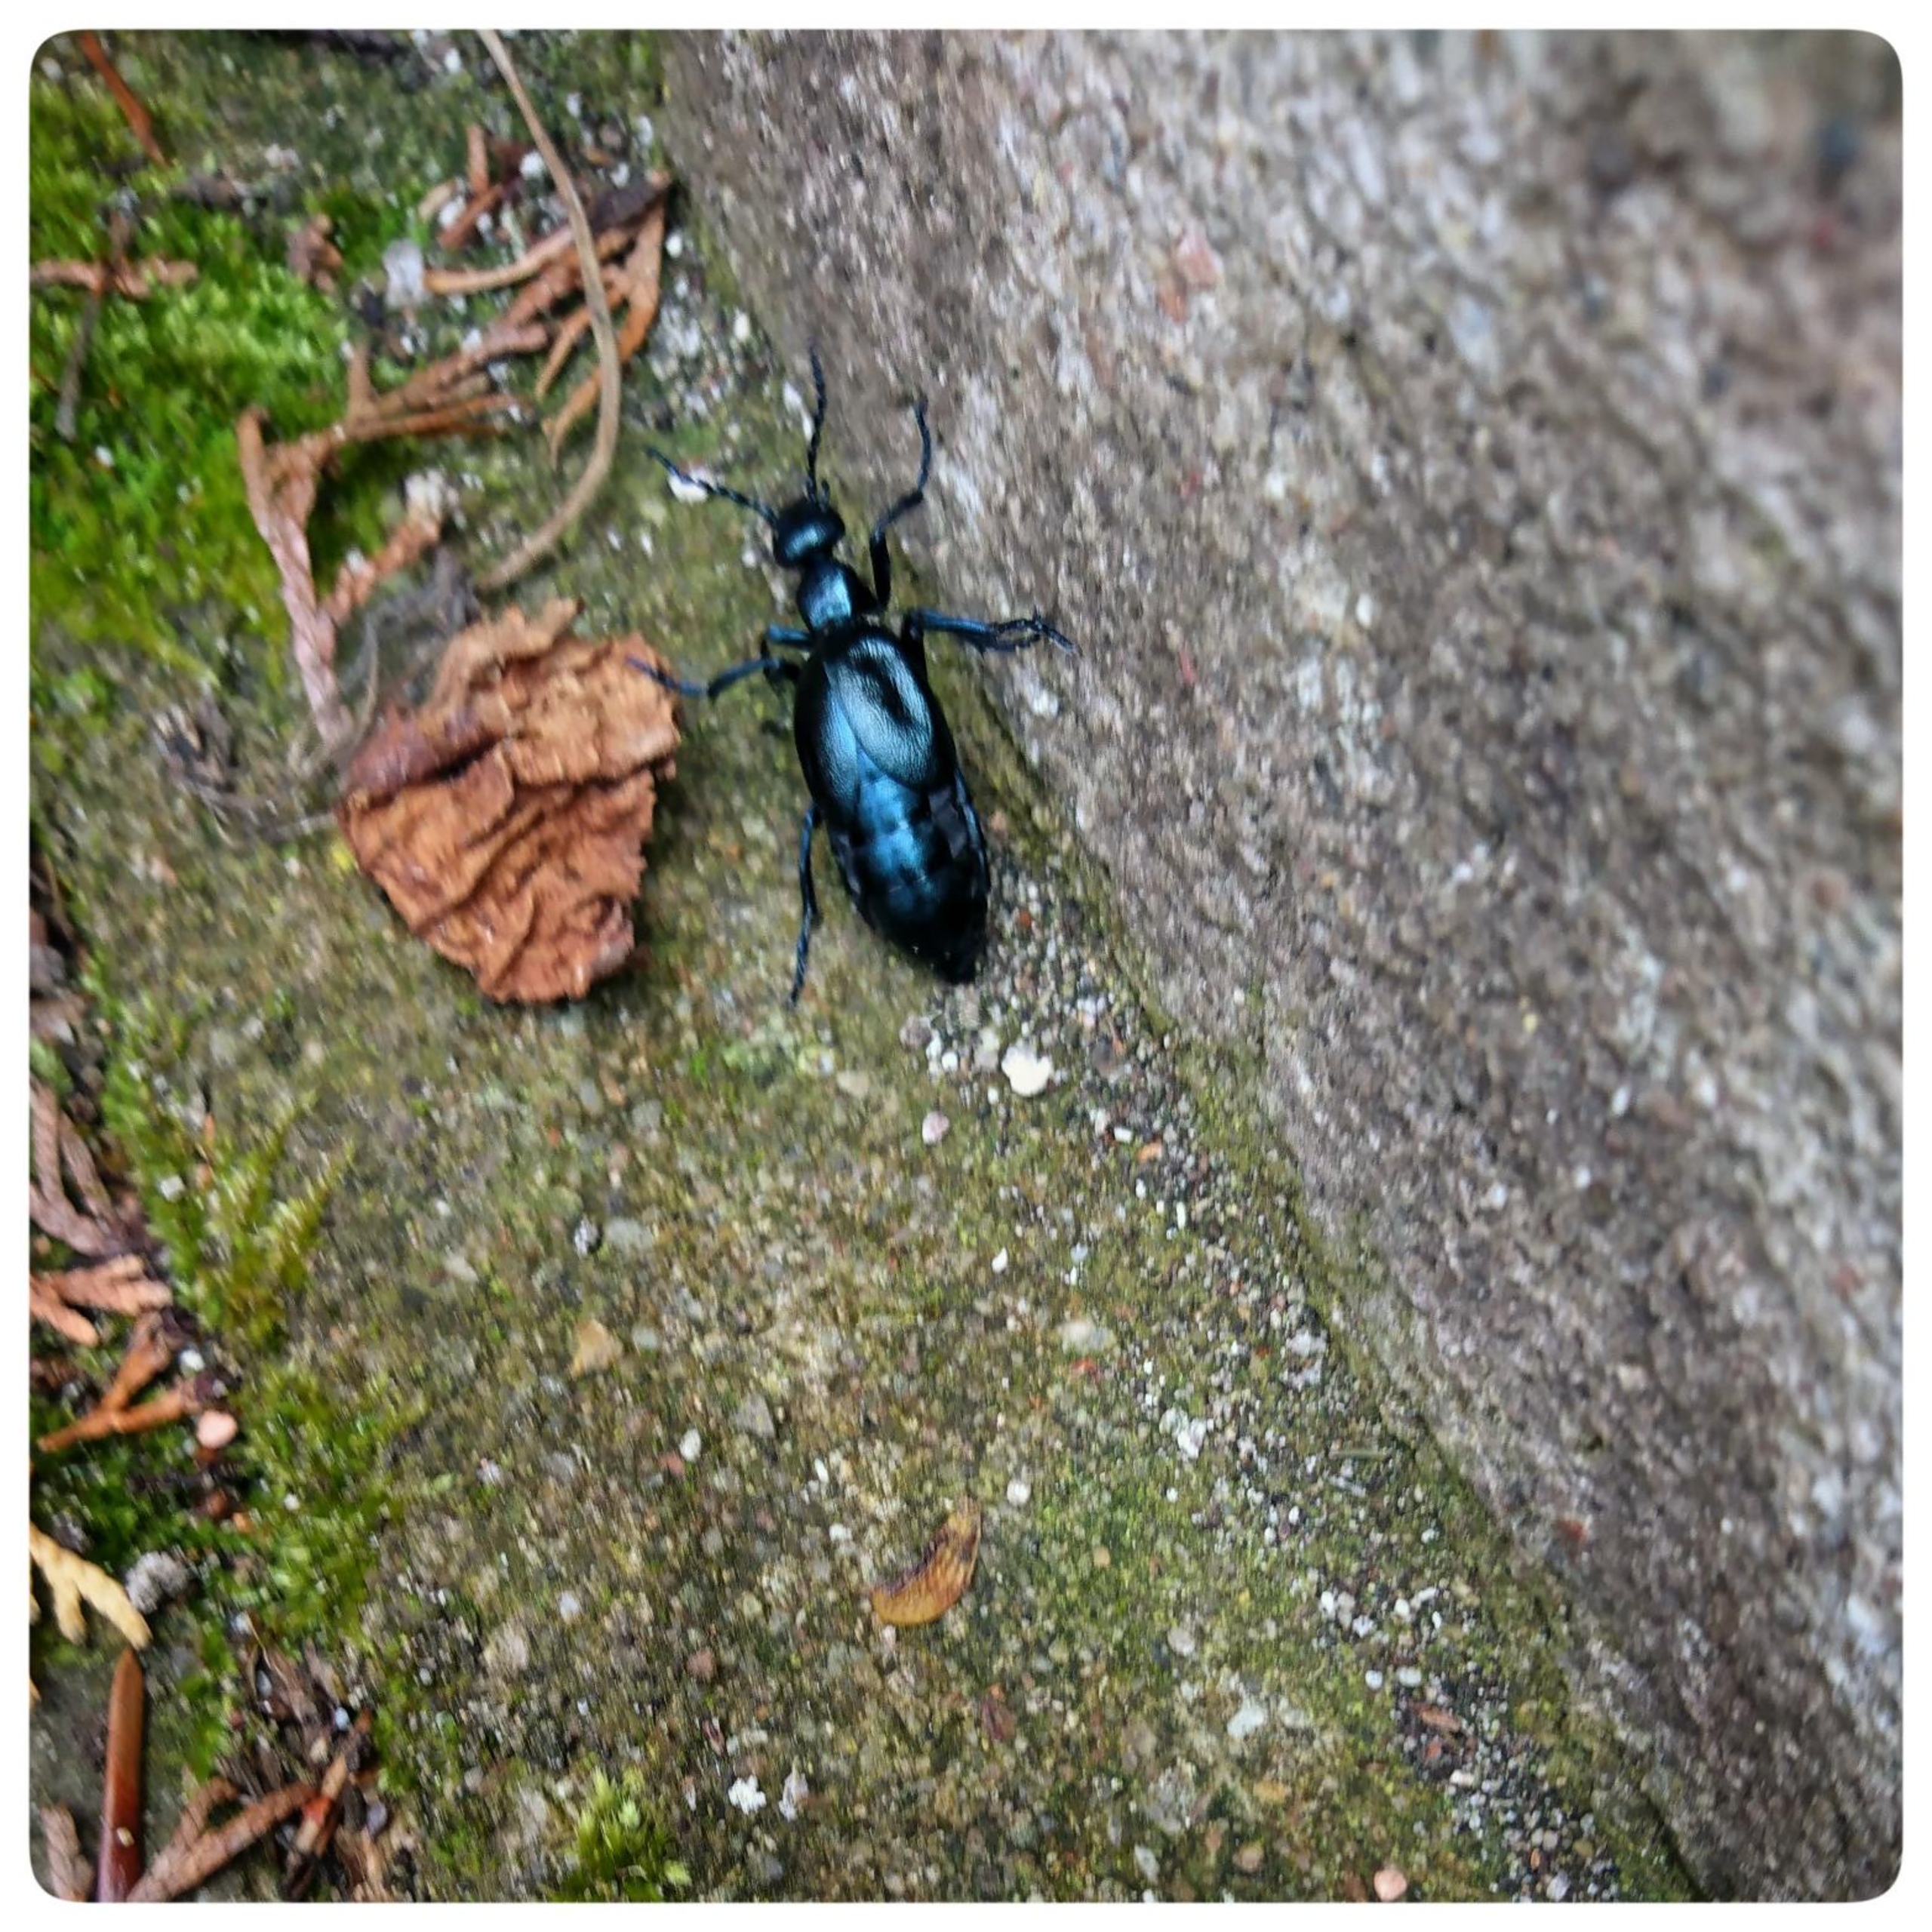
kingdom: Animalia
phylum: Arthropoda
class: Insecta
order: Coleoptera
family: Meloidae
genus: Meloe
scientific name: Meloe violaceus
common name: Blå oliebille
